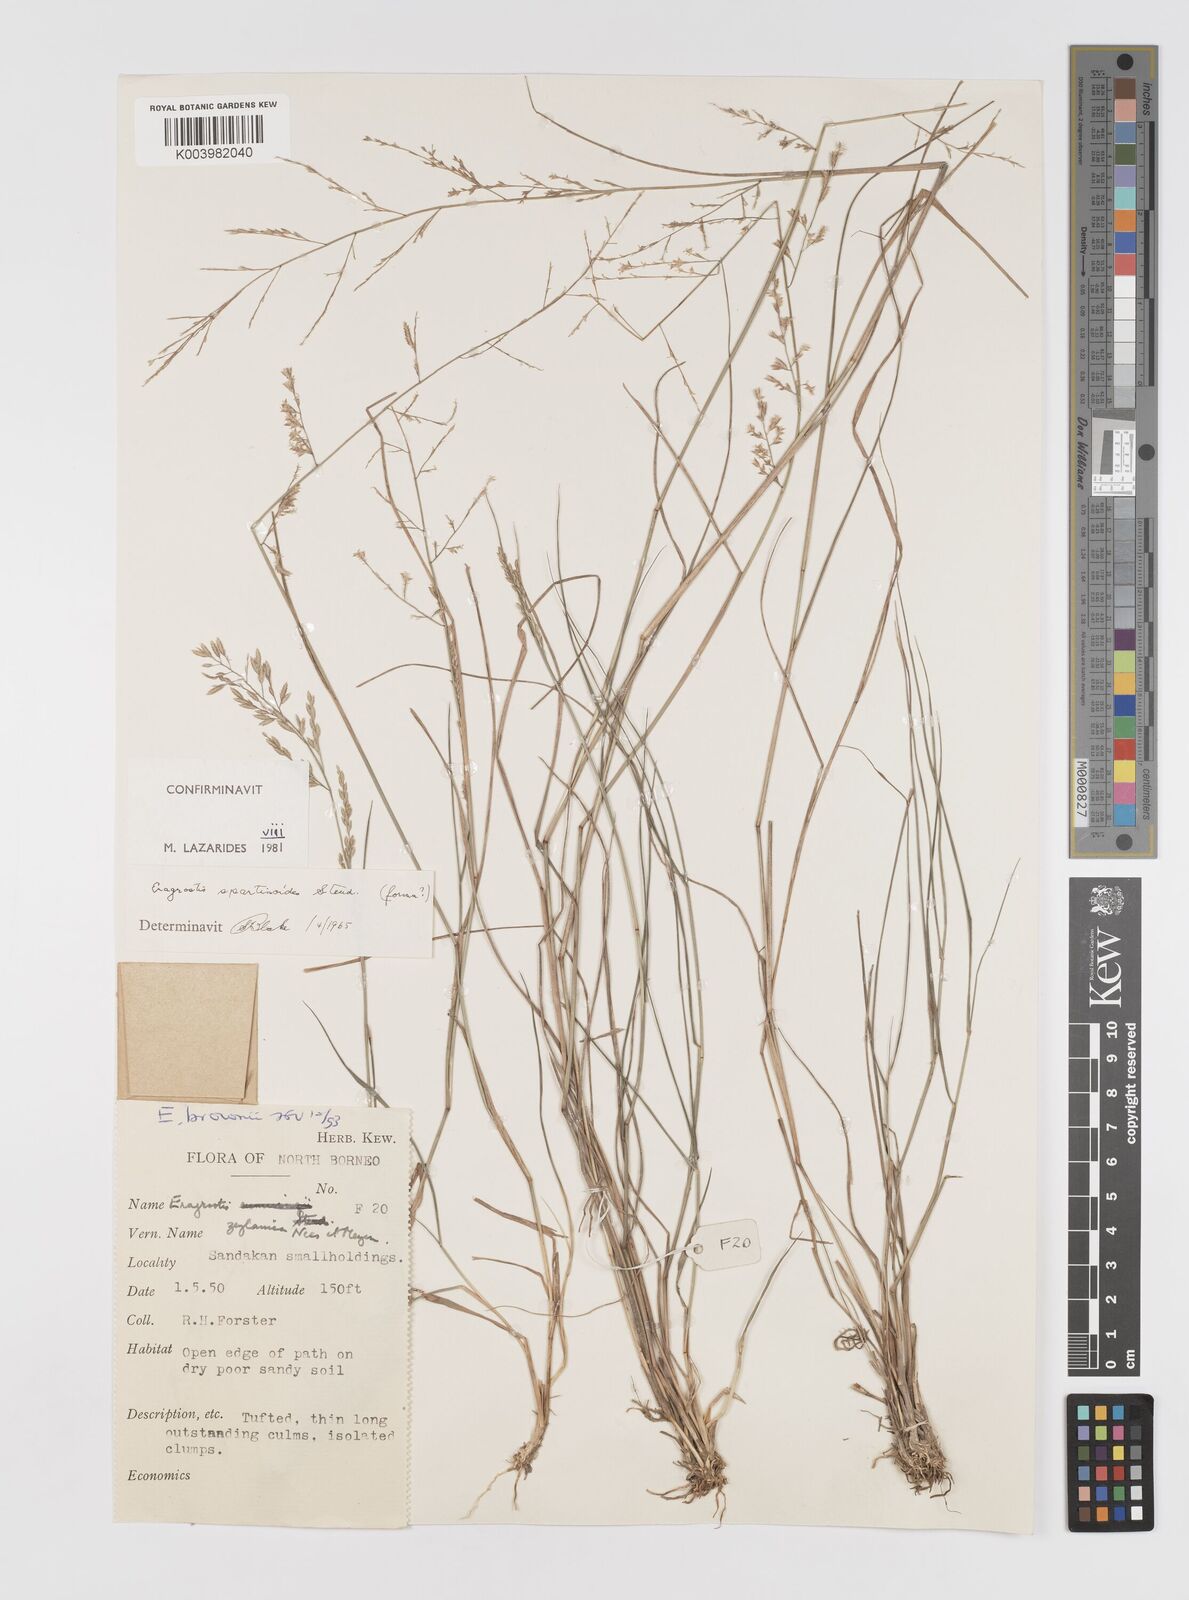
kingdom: Plantae
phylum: Tracheophyta
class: Liliopsida
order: Poales
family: Poaceae
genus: Eragrostis
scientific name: Eragrostis brownii
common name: Lovegrass
